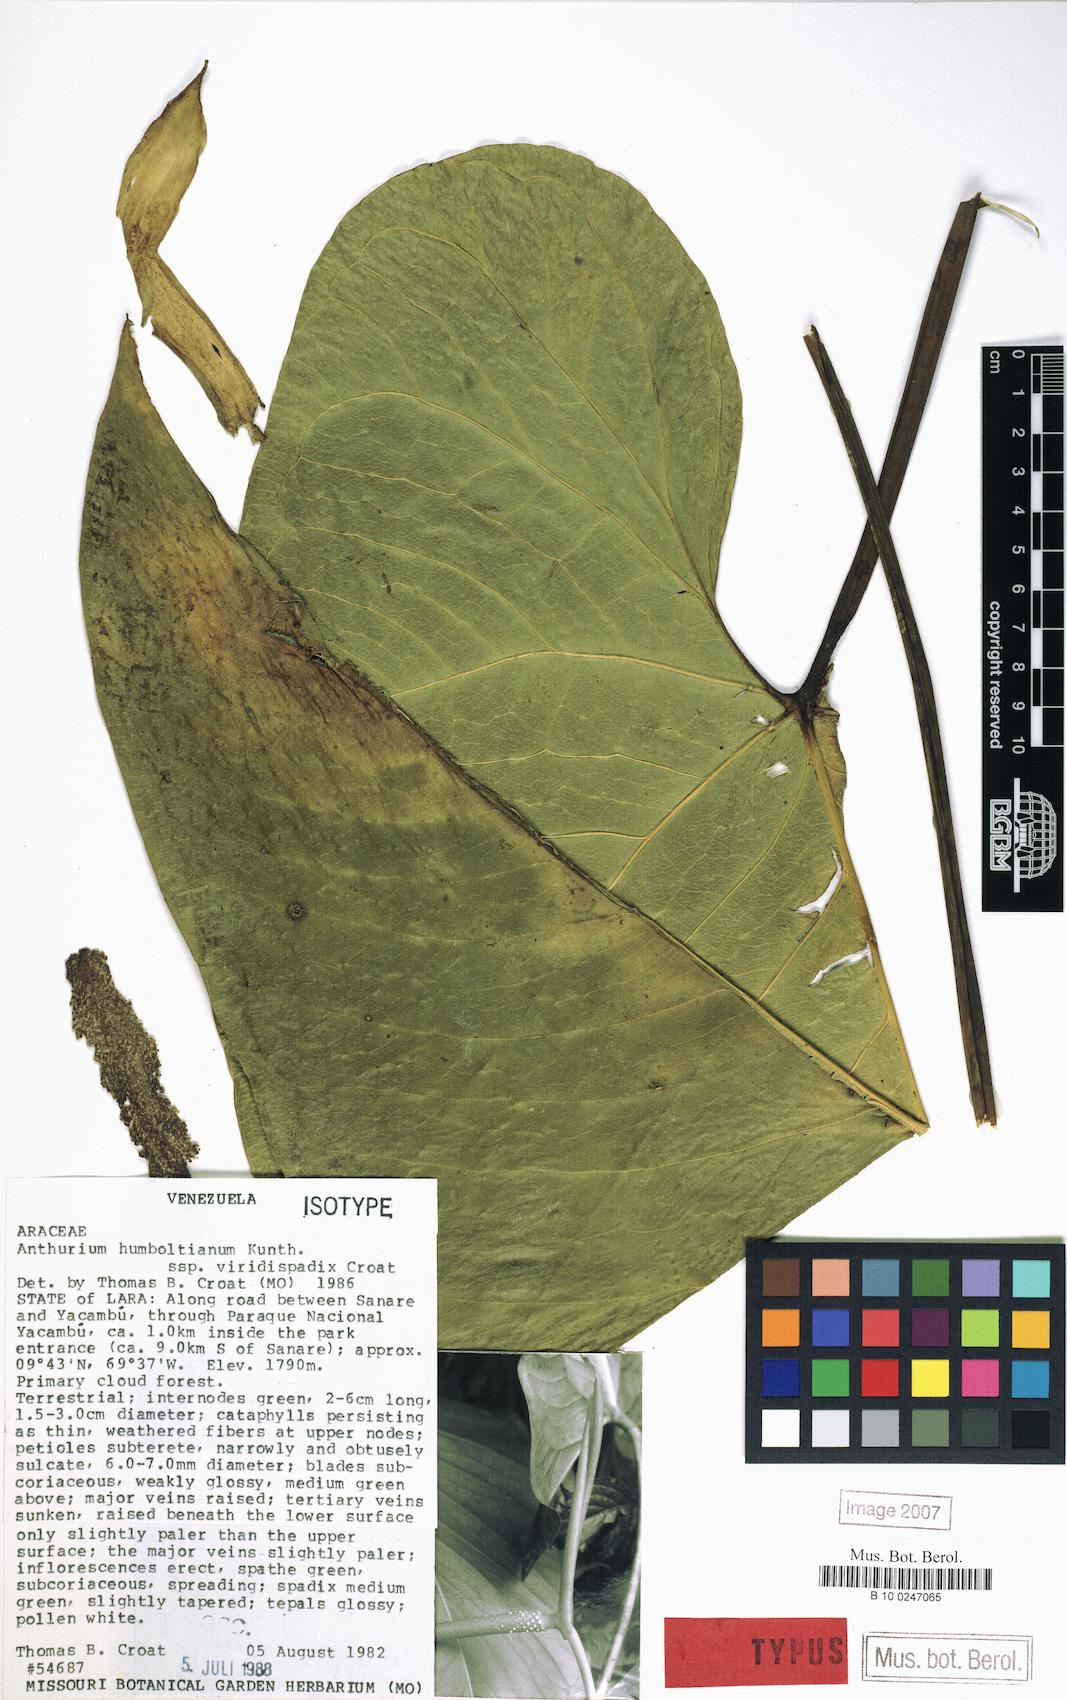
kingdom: Plantae
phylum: Tracheophyta
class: Liliopsida
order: Alismatales
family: Araceae
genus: Anthurium
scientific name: Anthurium martae
